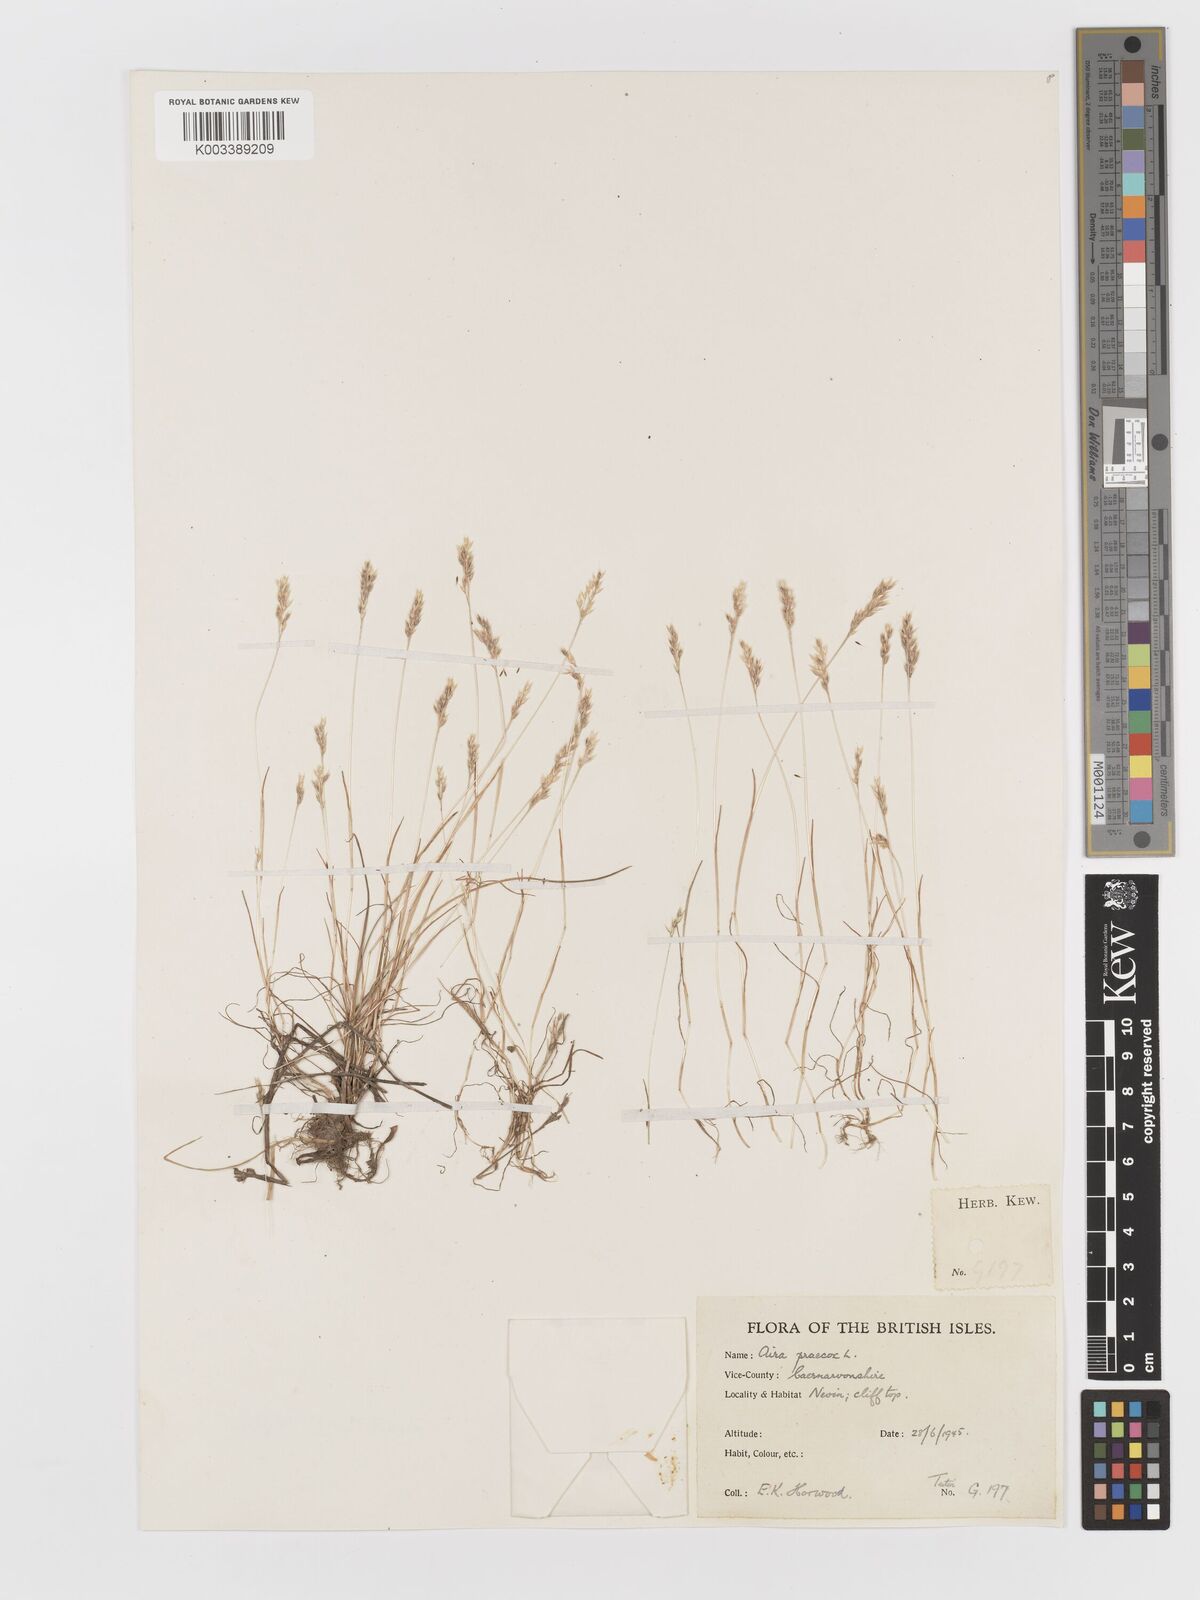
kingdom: Plantae
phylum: Tracheophyta
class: Liliopsida
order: Poales
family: Poaceae
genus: Aira
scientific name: Aira praecox
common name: Early hair-grass
